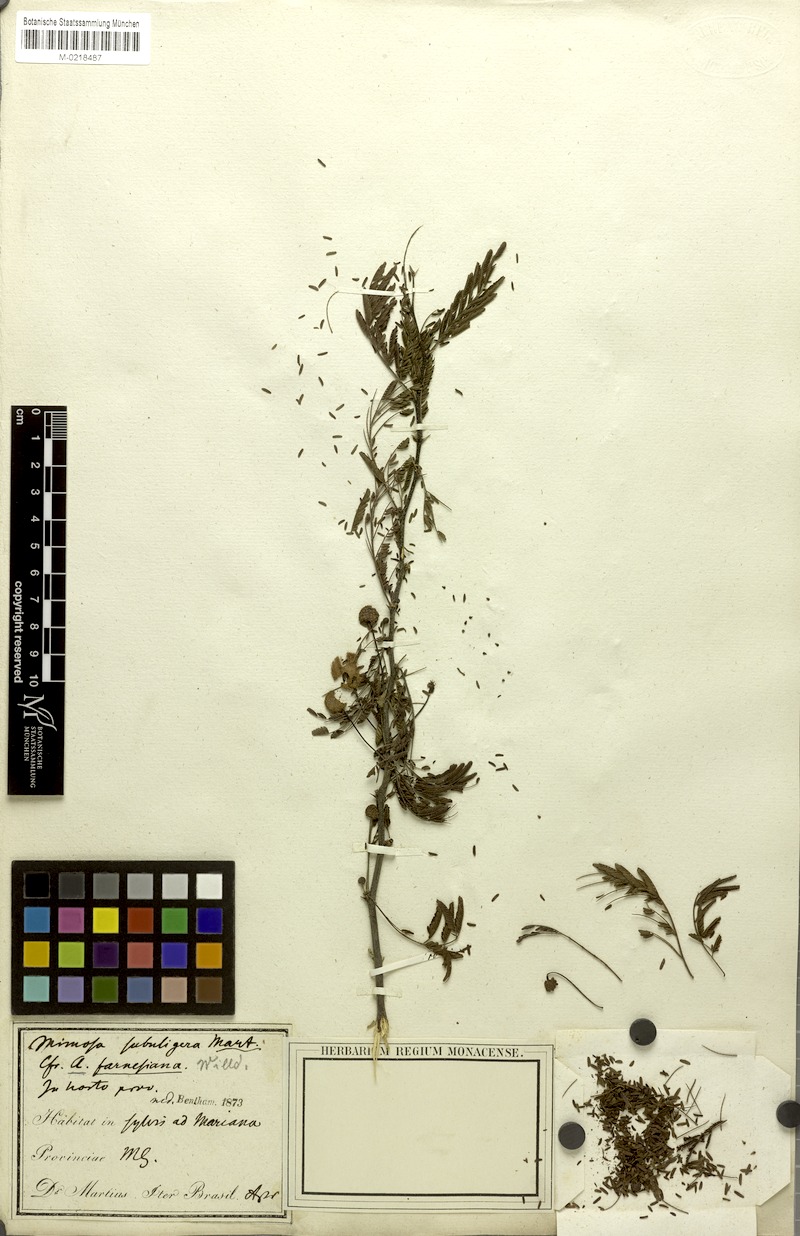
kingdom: Plantae
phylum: Tracheophyta
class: Magnoliopsida
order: Fabales
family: Fabaceae
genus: Vachellia
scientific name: Vachellia farnesiana
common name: Sweet acacia
